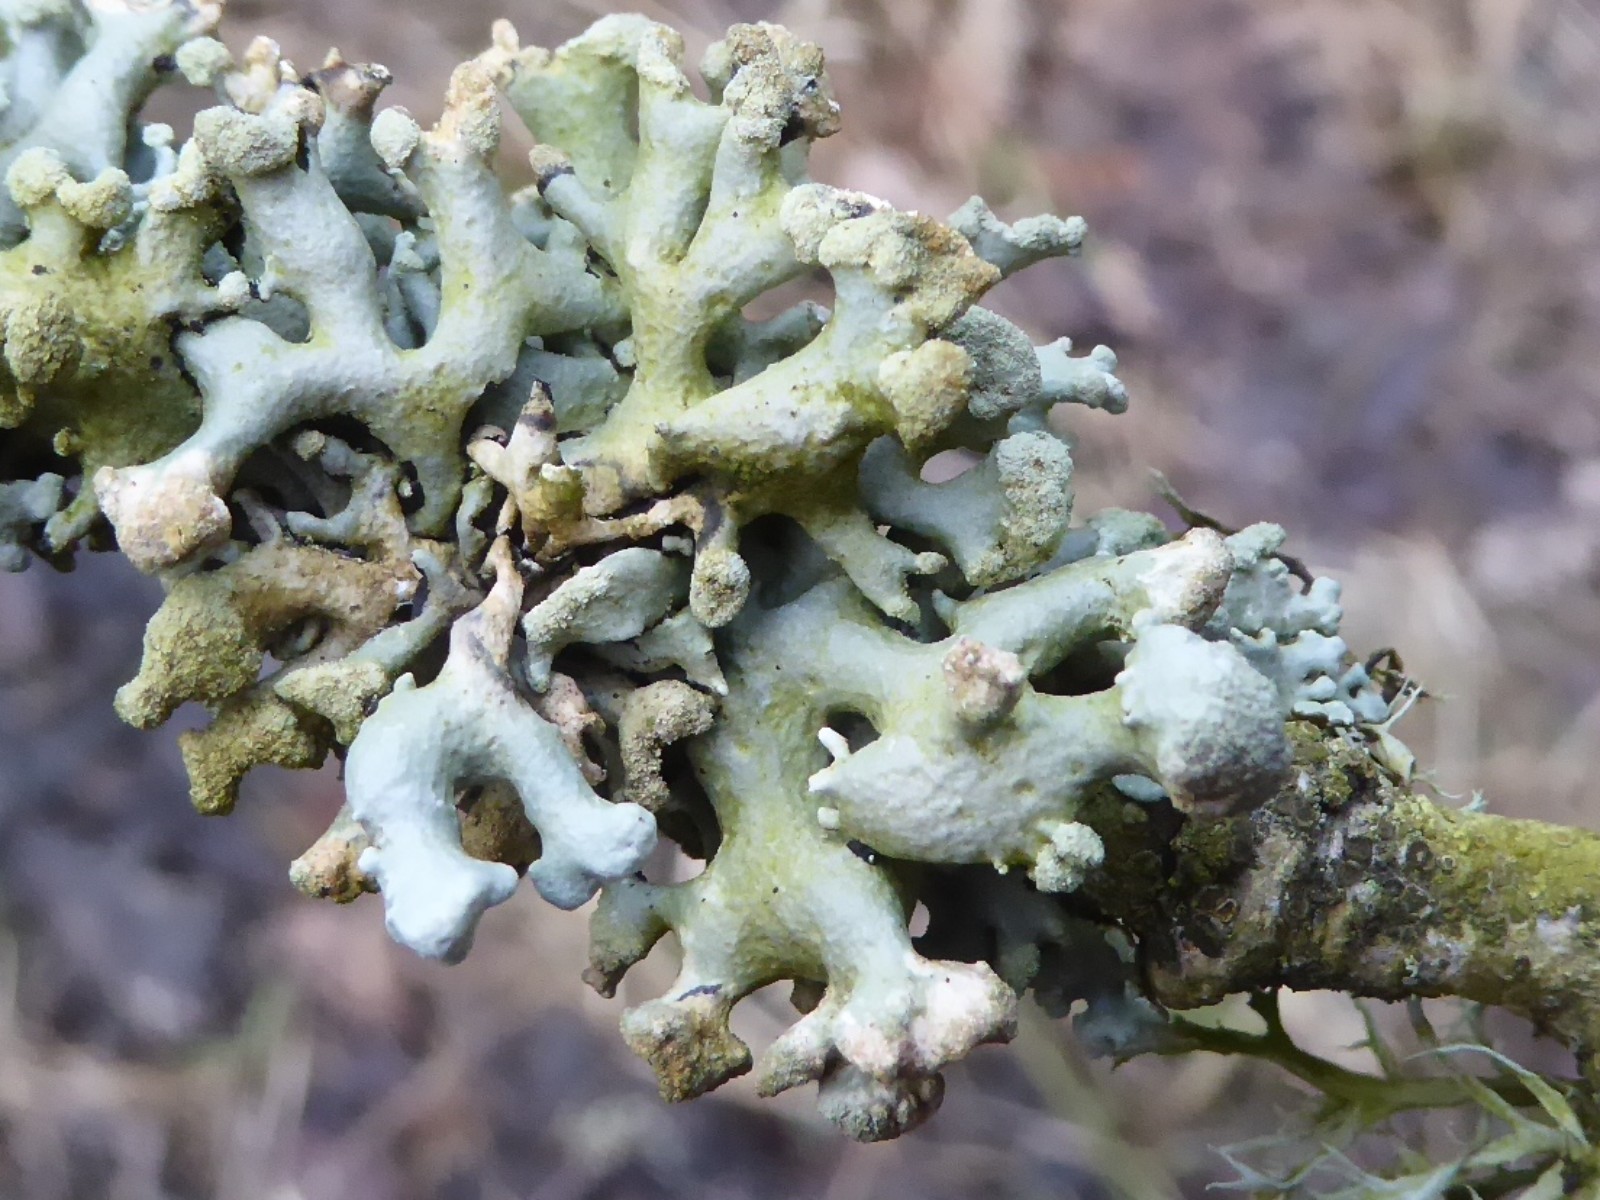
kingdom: Fungi
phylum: Ascomycota
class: Lecanoromycetes
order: Lecanorales
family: Parmeliaceae
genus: Hypogymnia
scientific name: Hypogymnia tubulosa
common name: finger-kvistlav
